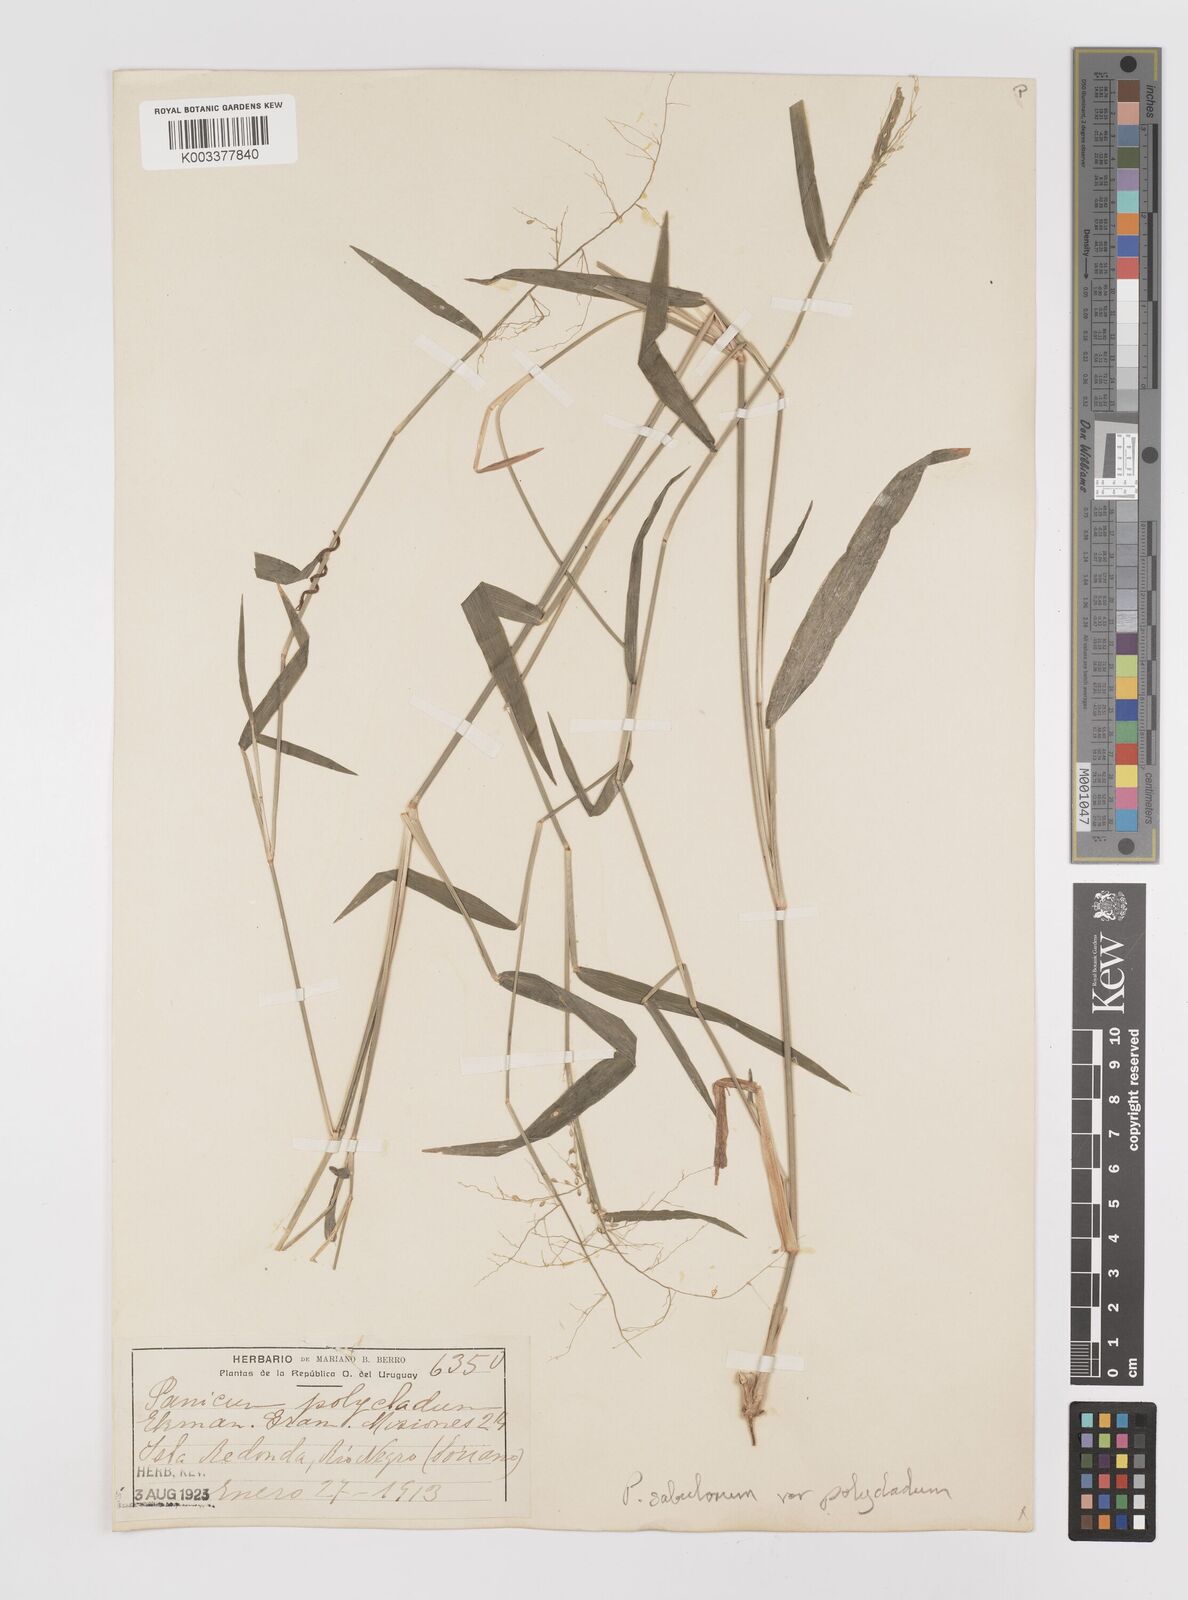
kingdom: Plantae
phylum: Tracheophyta
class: Liliopsida
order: Poales
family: Poaceae
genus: Dichanthelium
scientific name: Dichanthelium sabulorum
